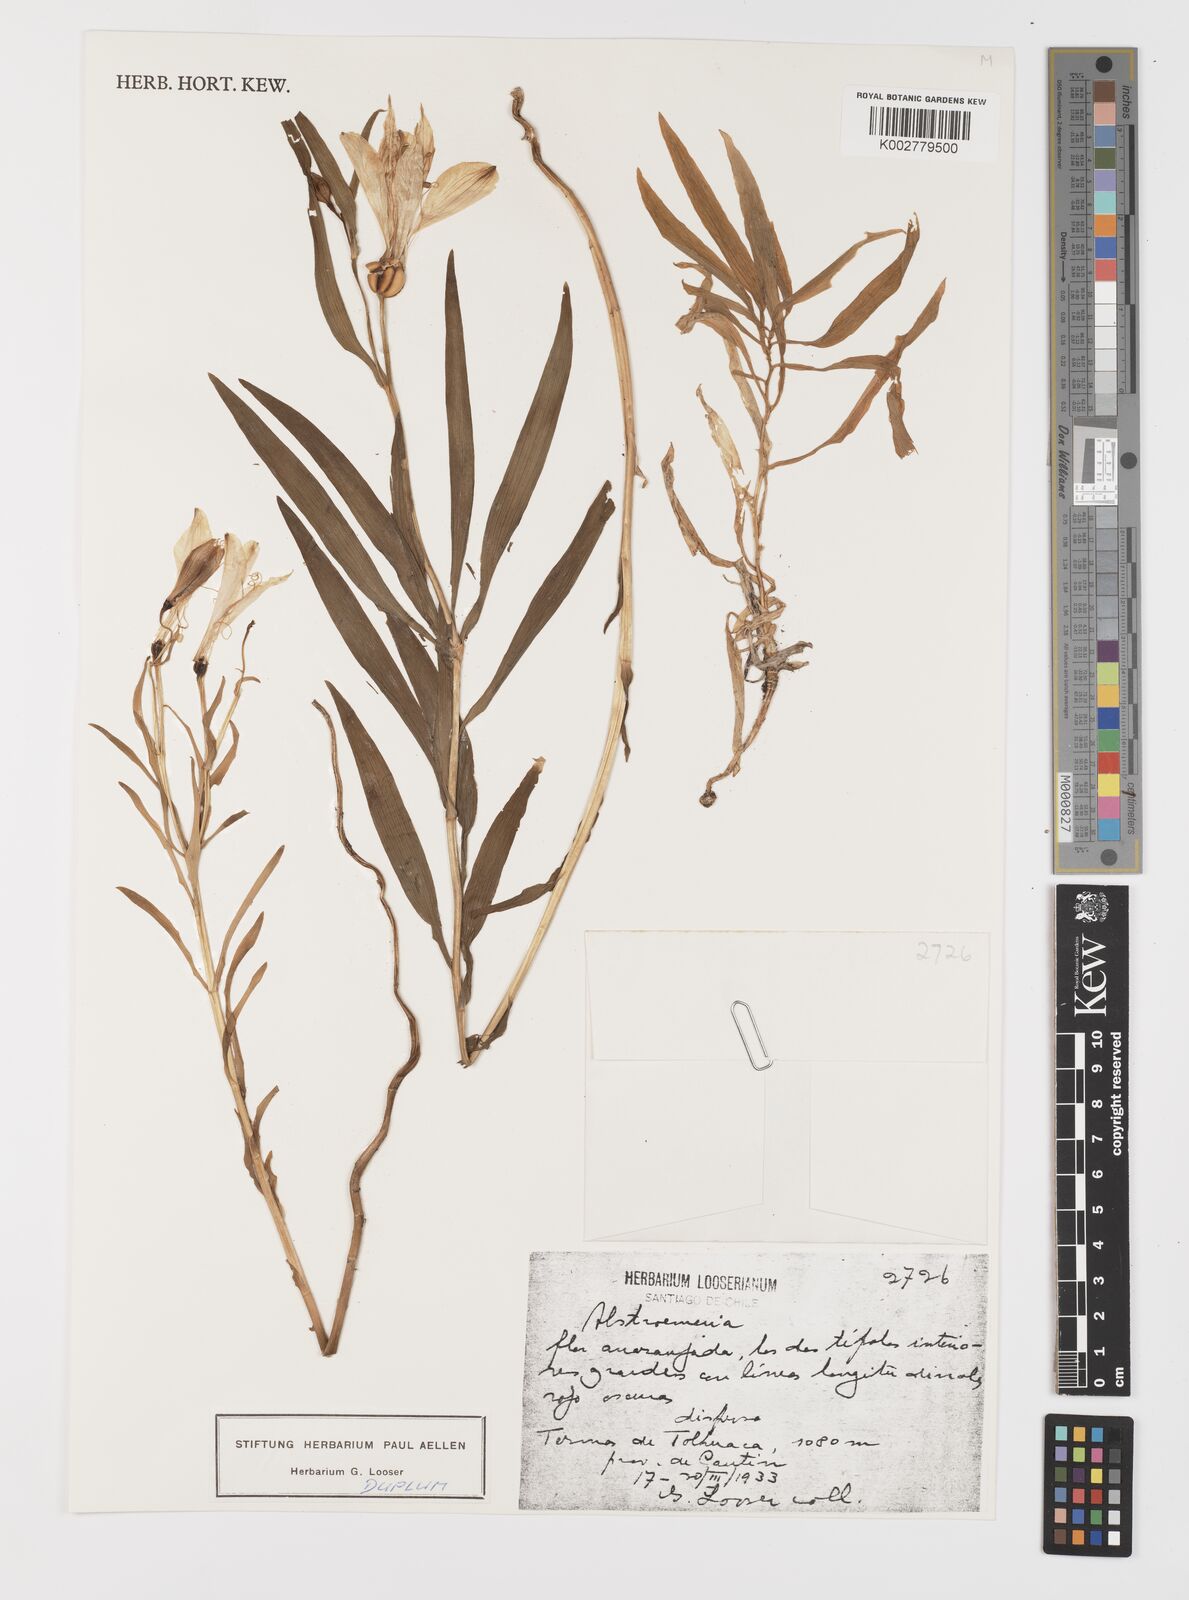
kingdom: Plantae
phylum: Tracheophyta
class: Liliopsida
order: Liliales
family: Alstroemeriaceae
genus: Alstroemeria
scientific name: Alstroemeria
